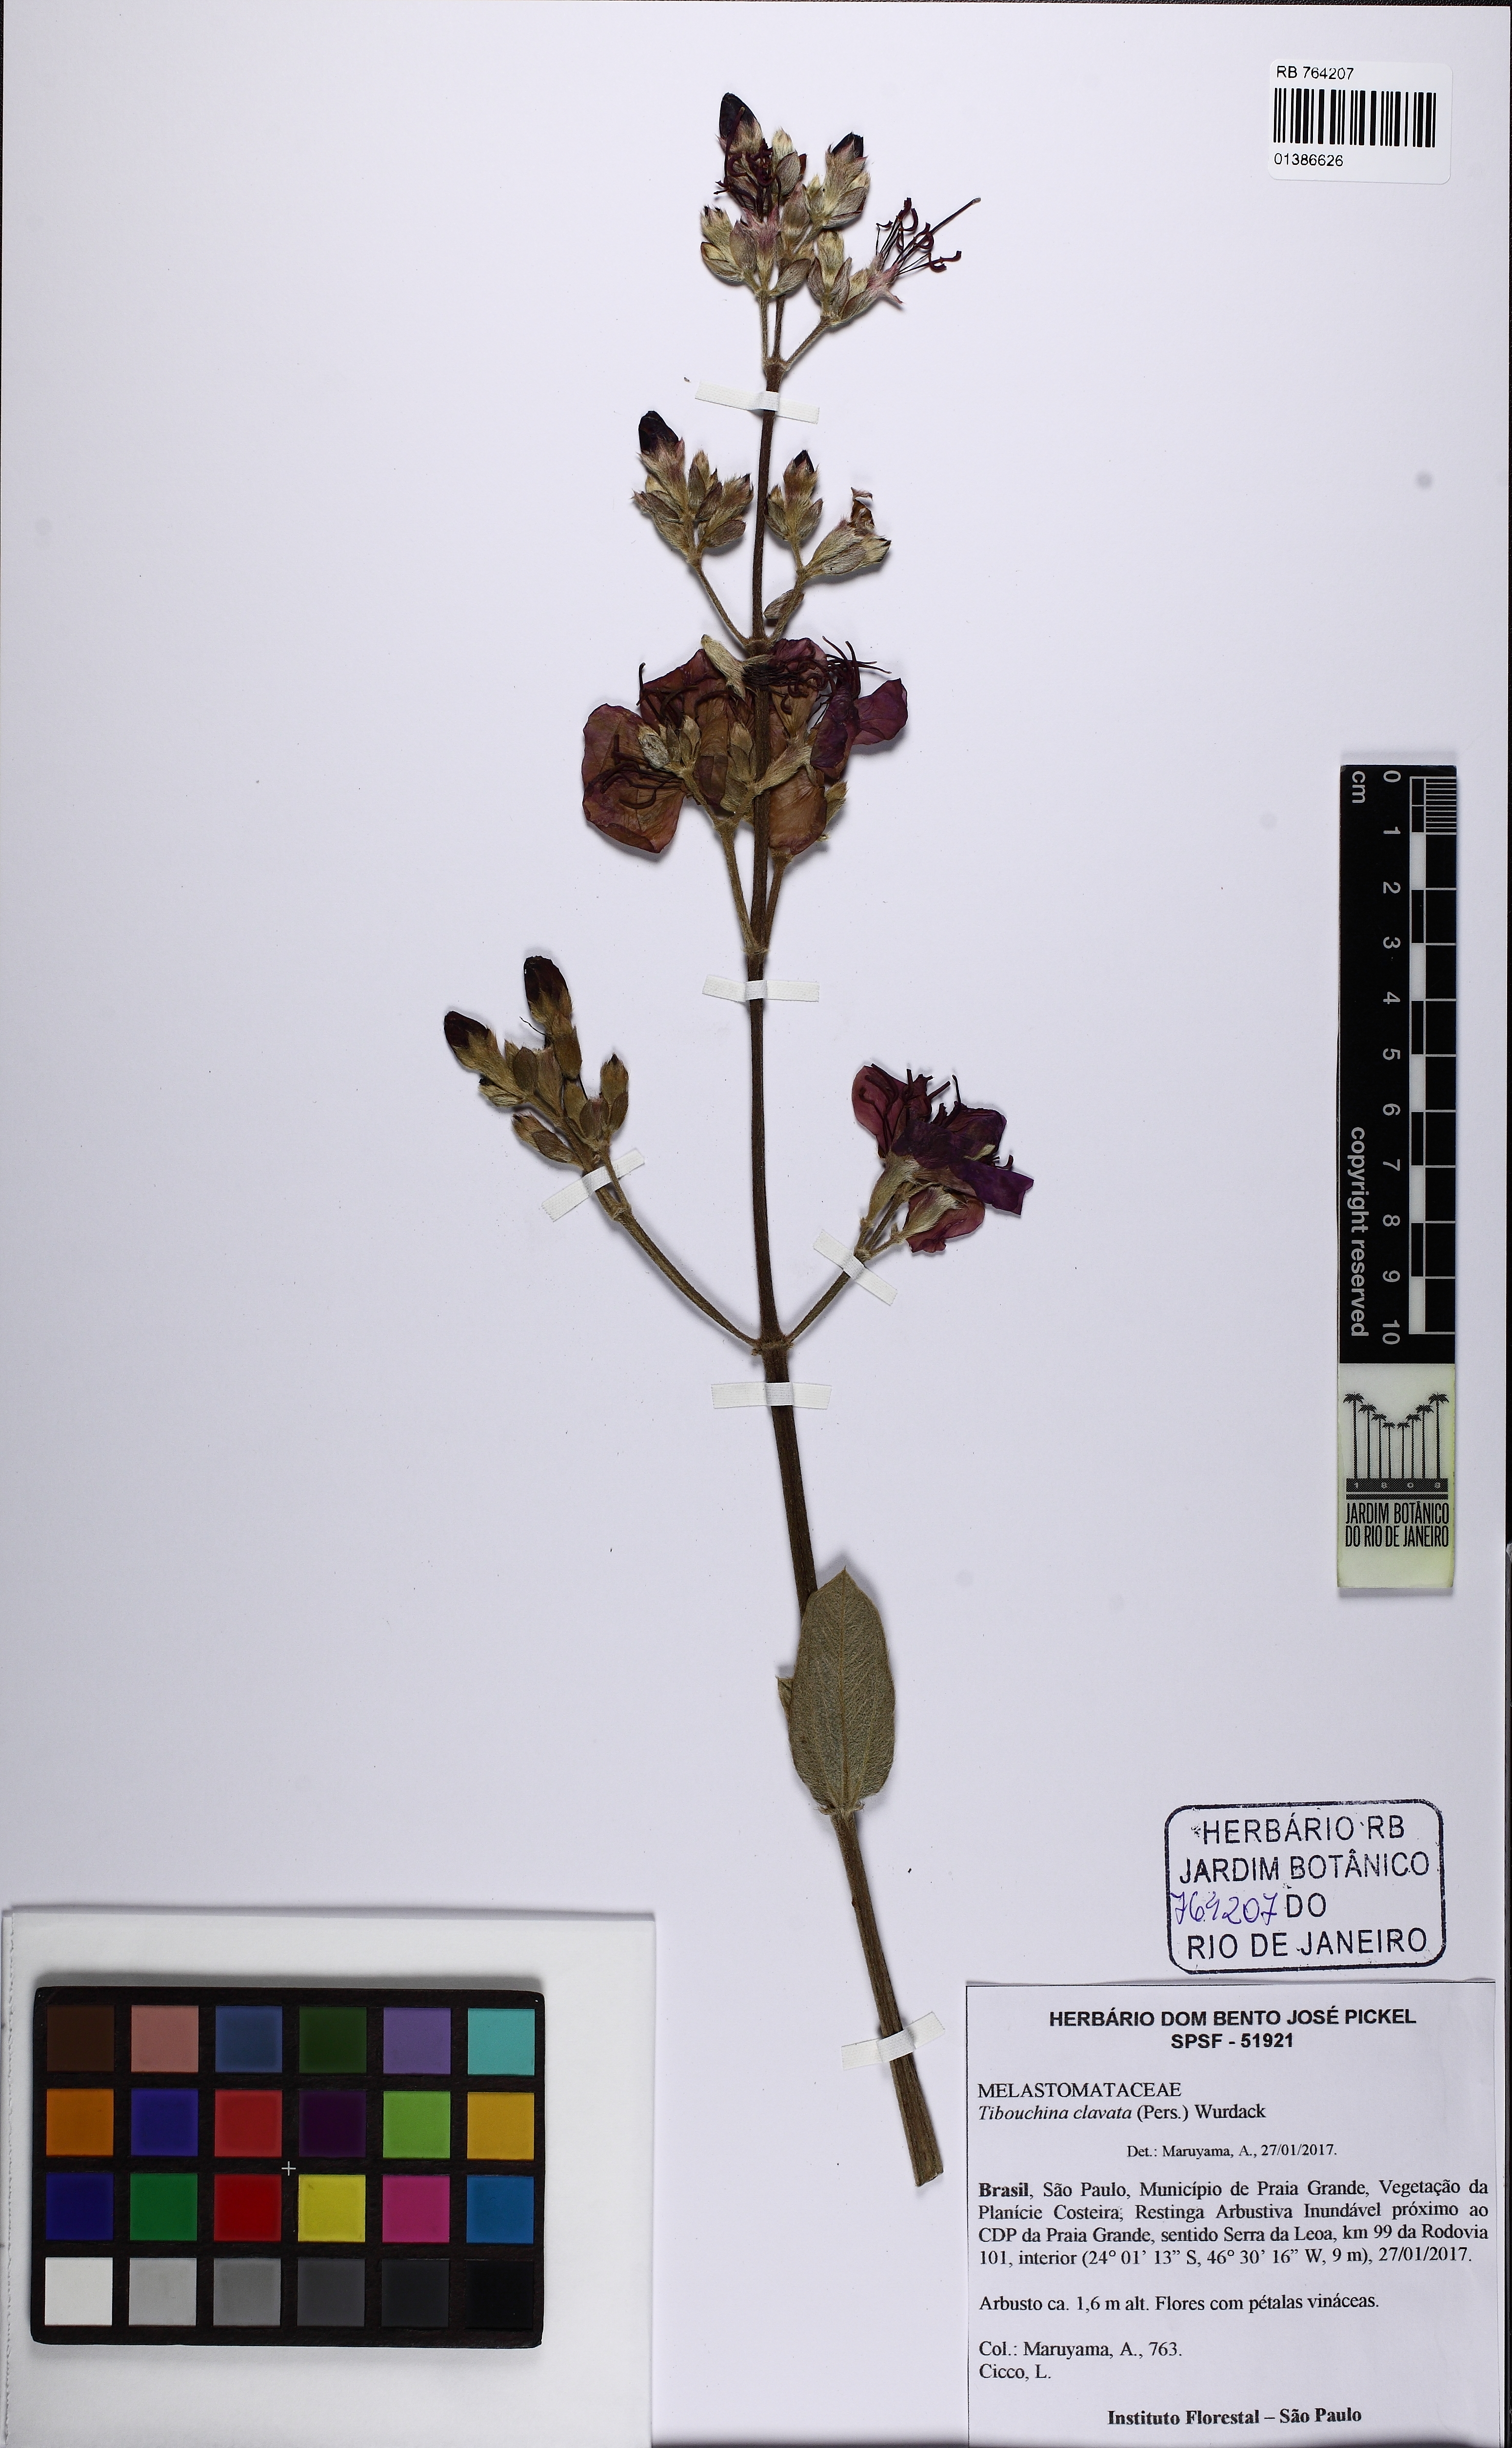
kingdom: Plantae
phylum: Tracheophyta
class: Magnoliopsida
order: Myrtales
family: Melastomataceae
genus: Pleroma
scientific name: Pleroma clavatum
